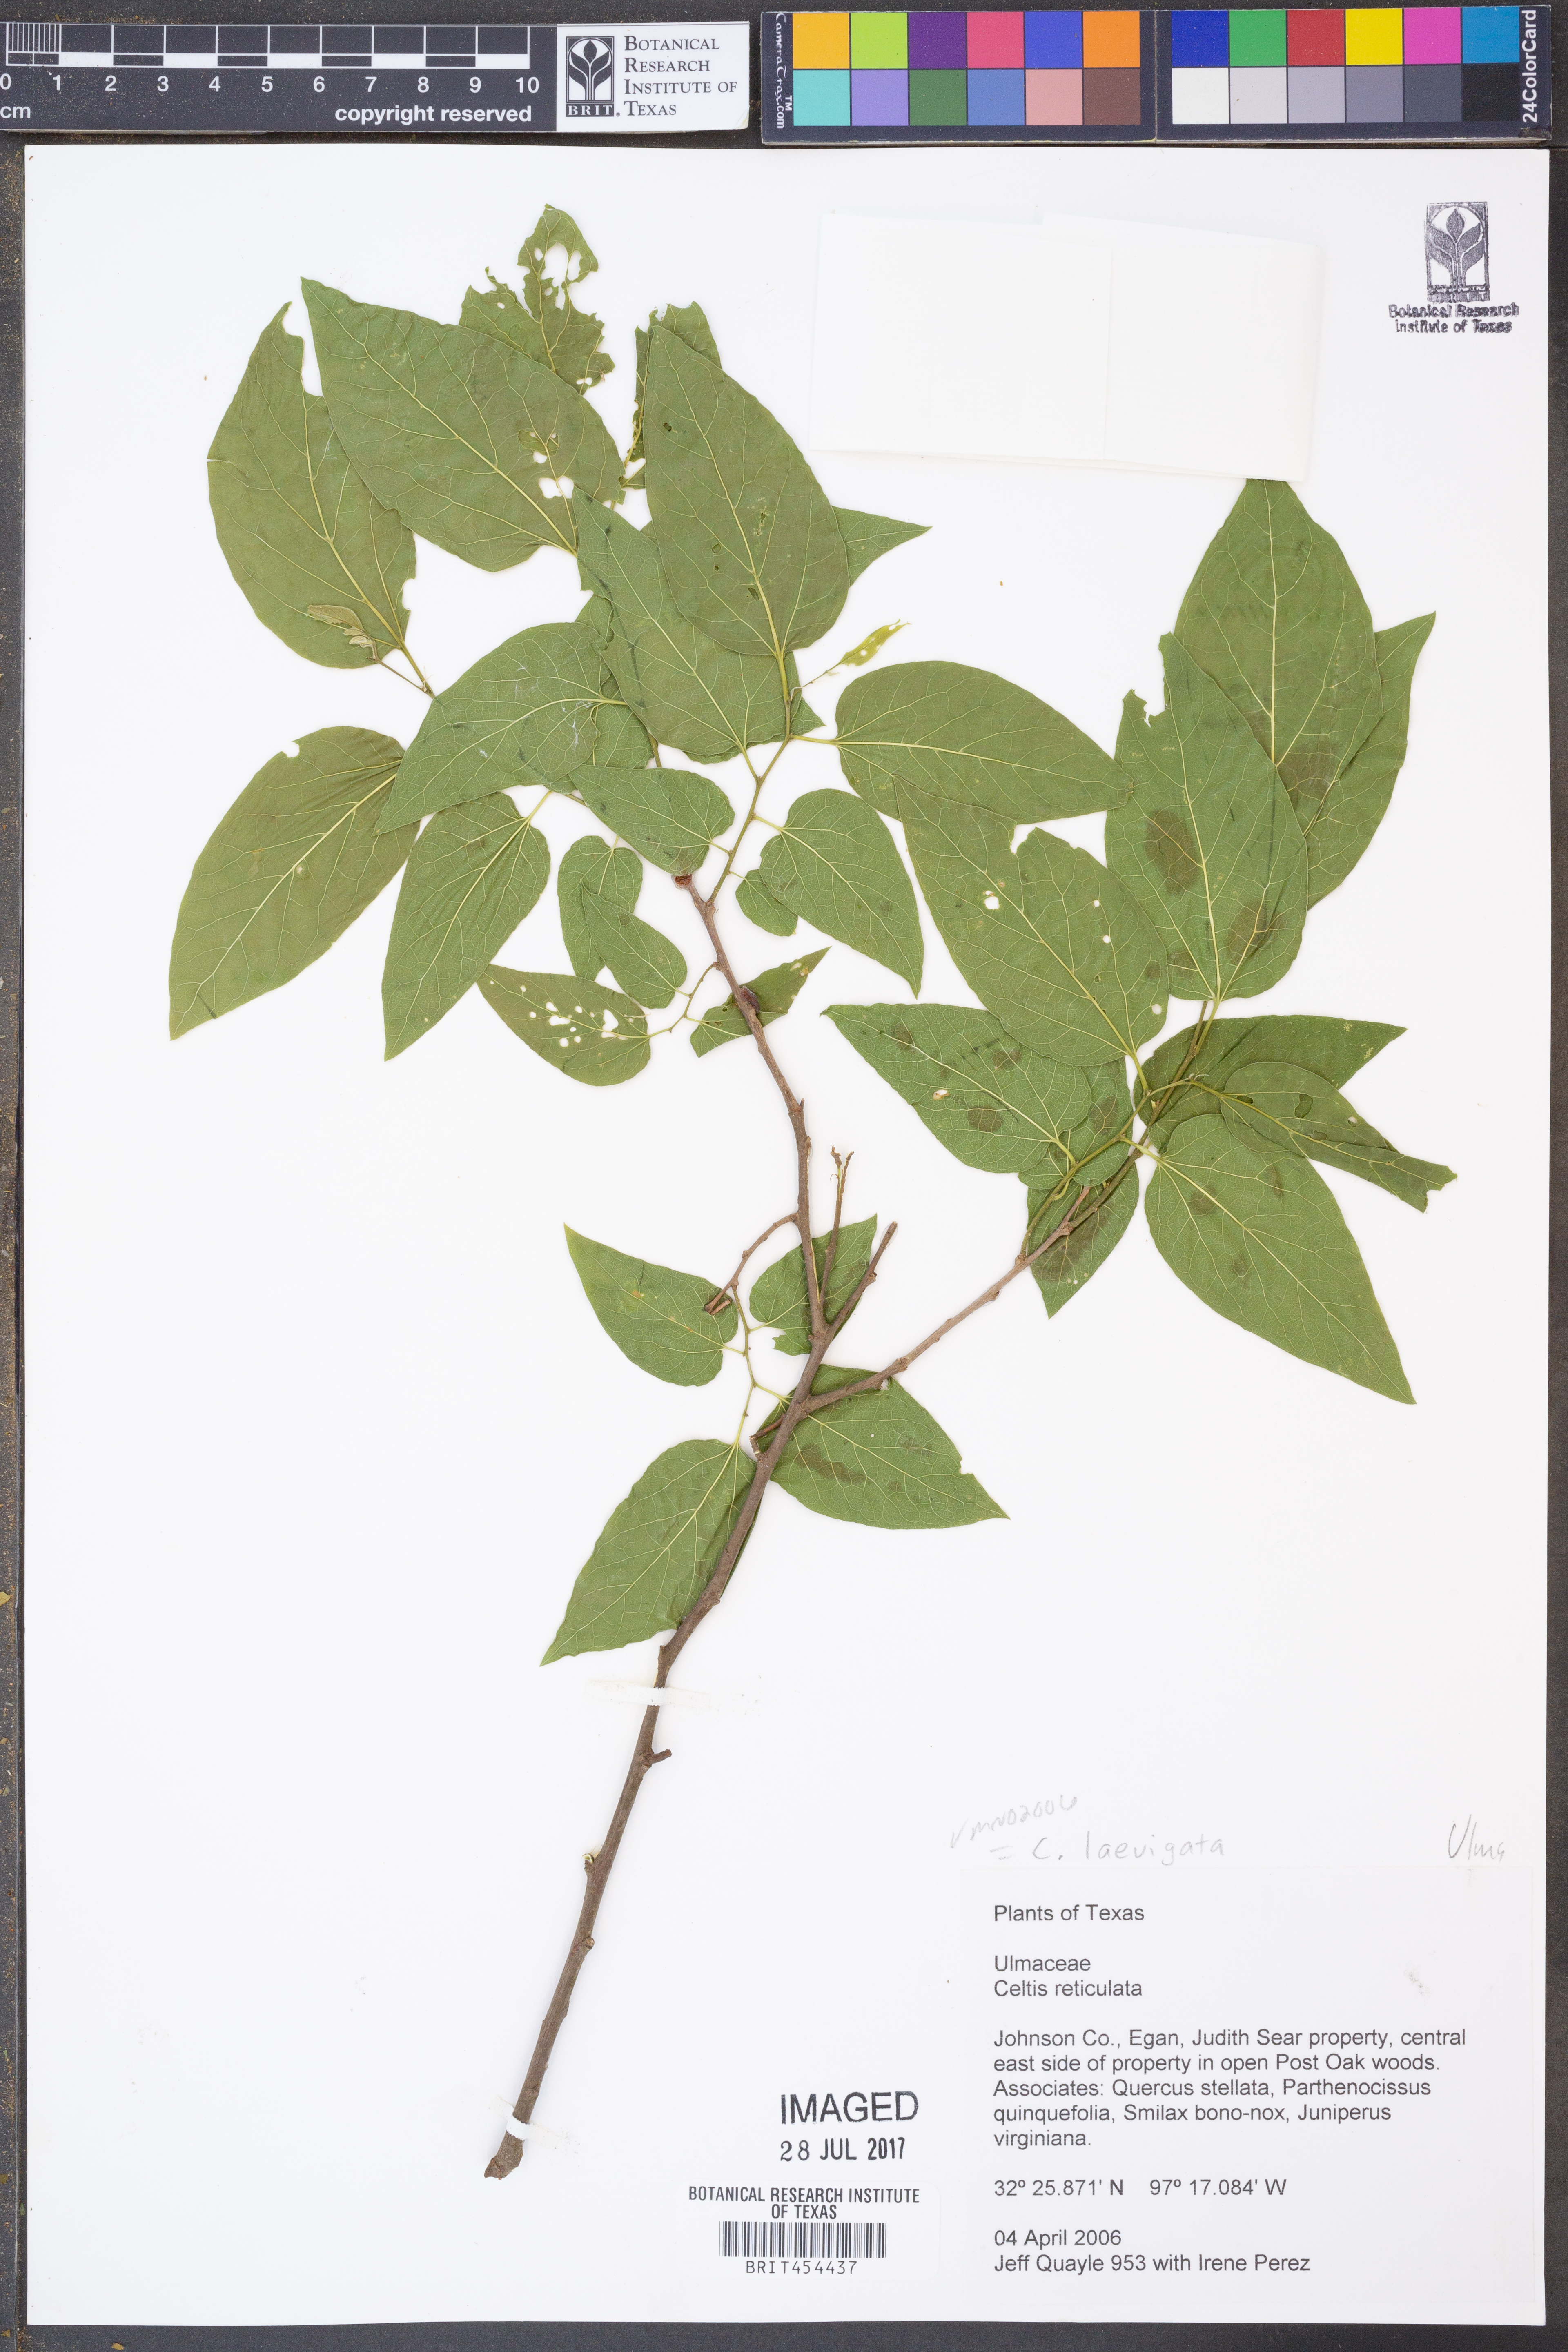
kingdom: Plantae
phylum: Tracheophyta
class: Magnoliopsida
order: Rosales
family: Cannabaceae
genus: Celtis
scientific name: Celtis reticulata
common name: Netleaf hackberry
